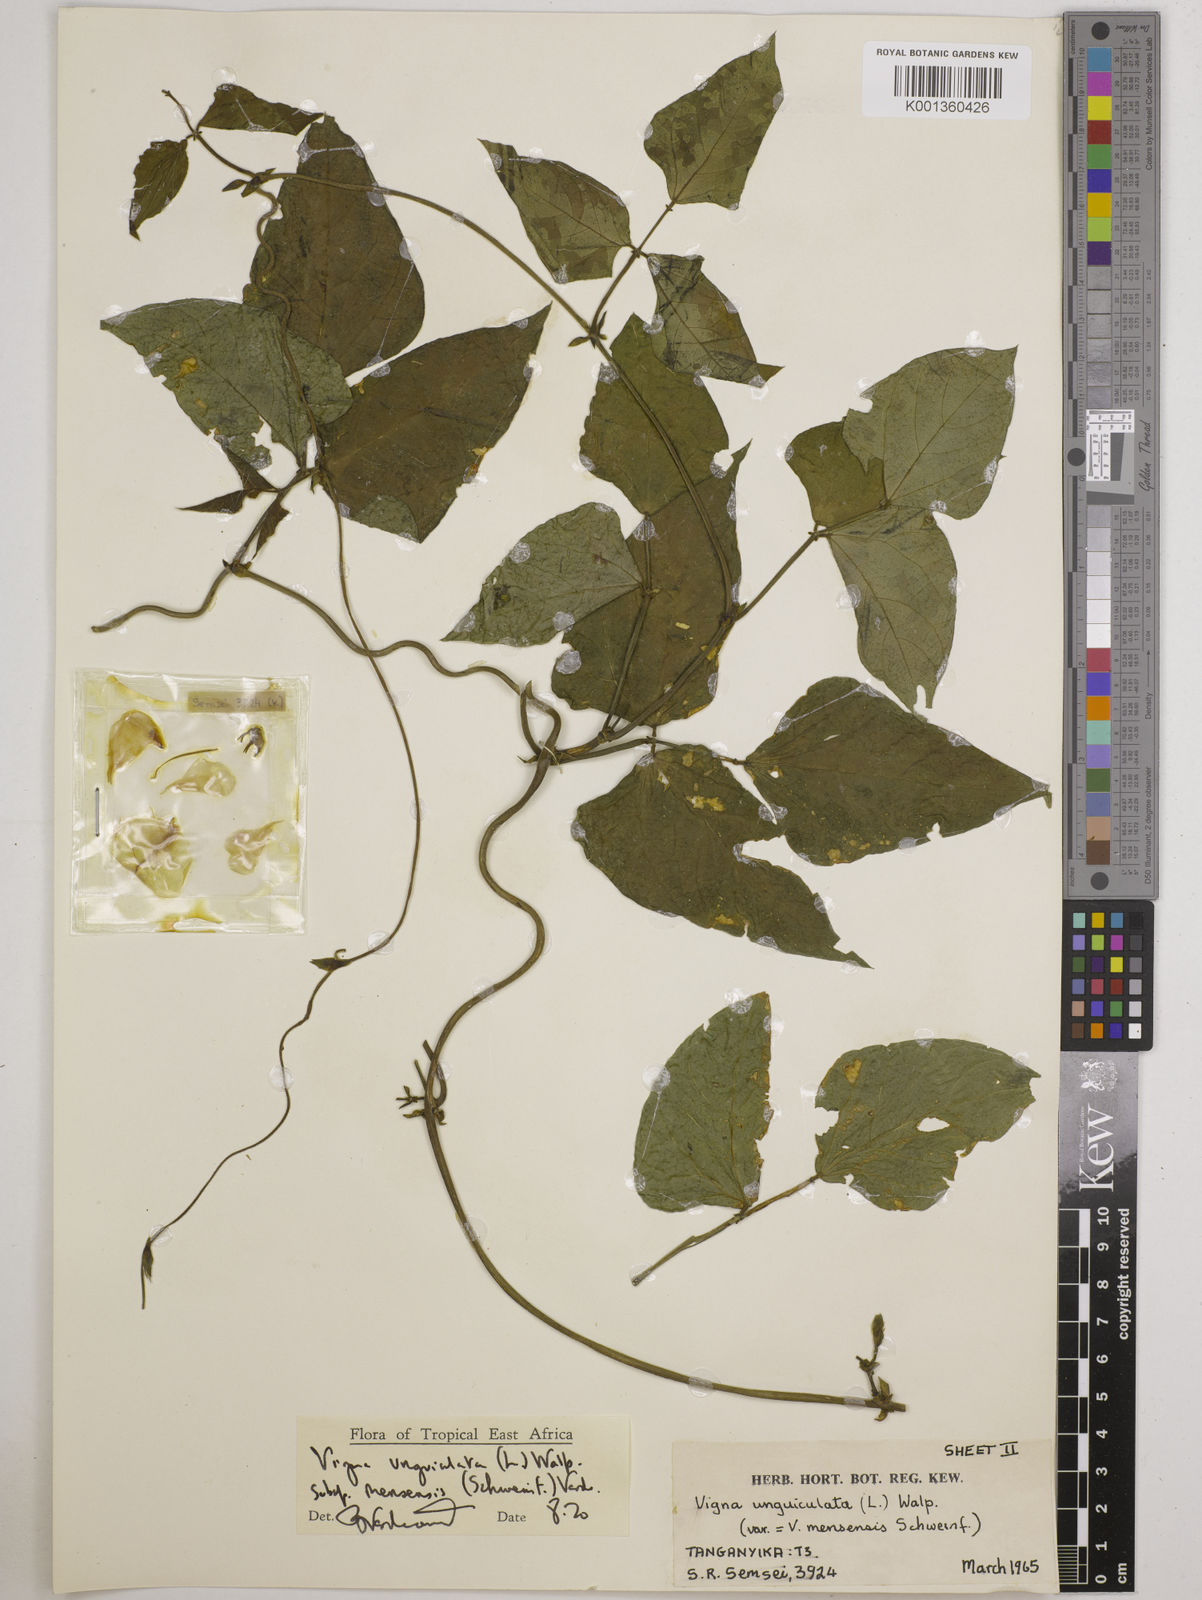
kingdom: Plantae
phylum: Tracheophyta
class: Magnoliopsida
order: Fabales
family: Fabaceae
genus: Vigna
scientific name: Vigna
